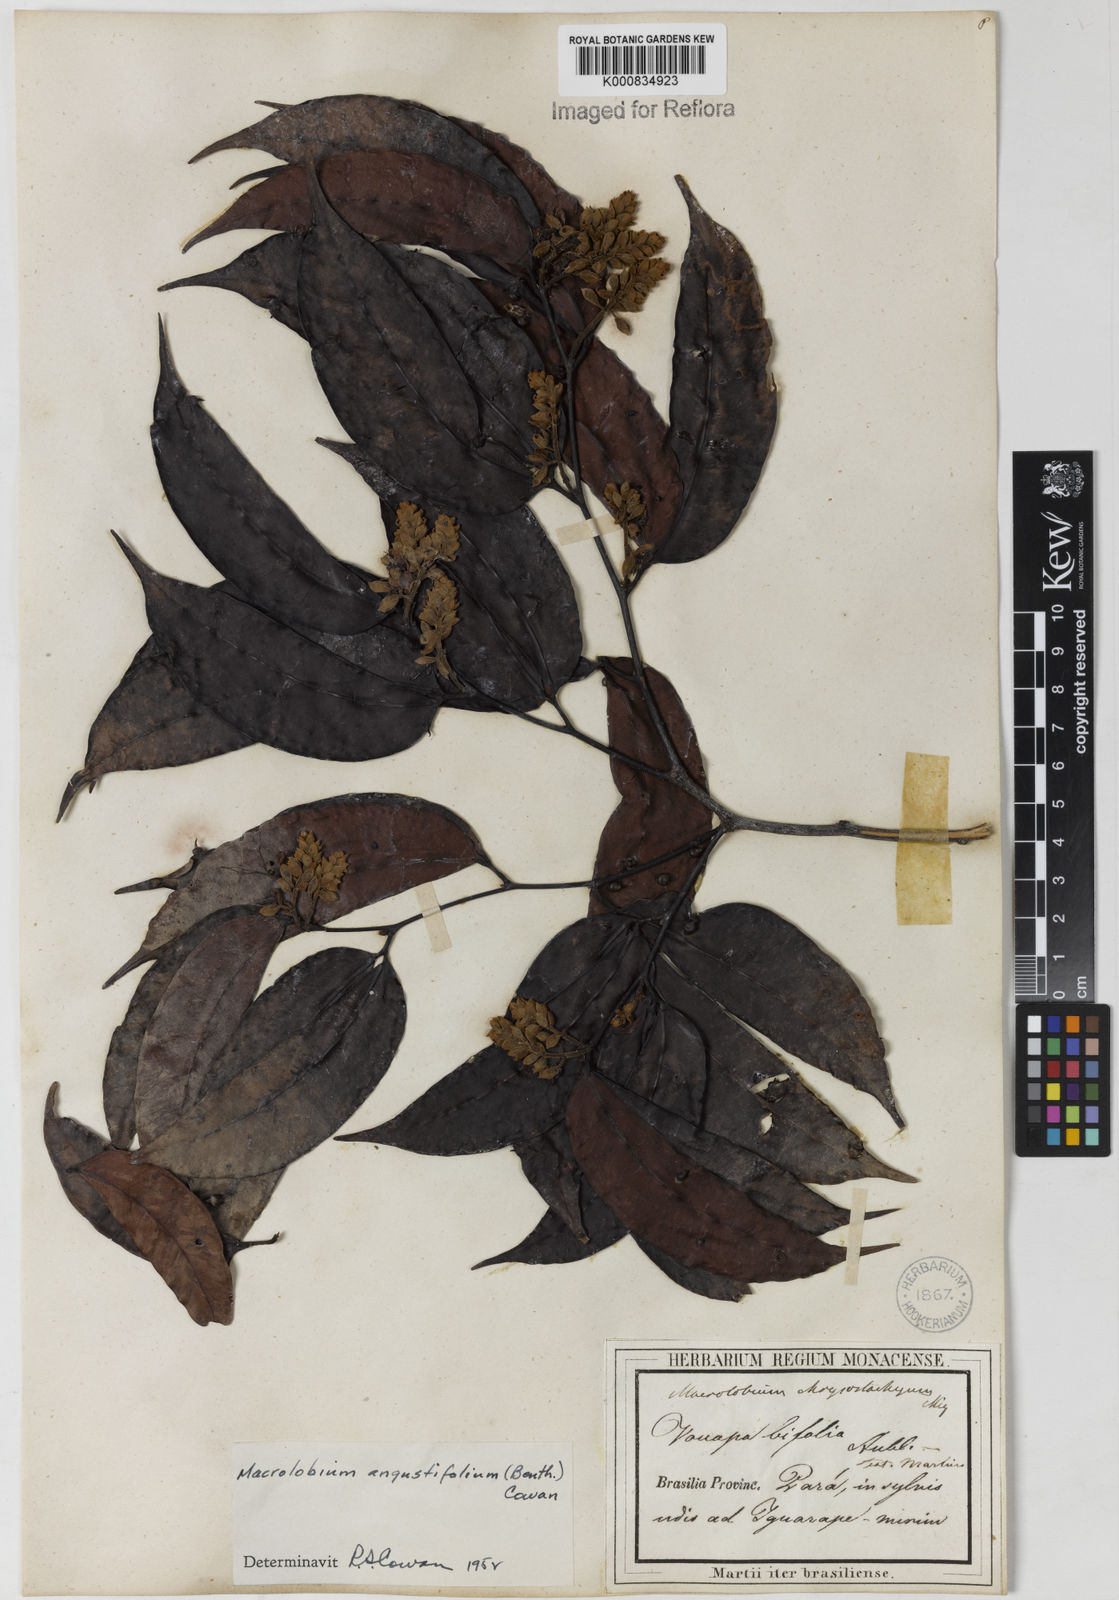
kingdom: Plantae
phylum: Tracheophyta
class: Magnoliopsida
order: Fabales
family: Fabaceae
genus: Macrolobium
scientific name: Macrolobium angustifolium
